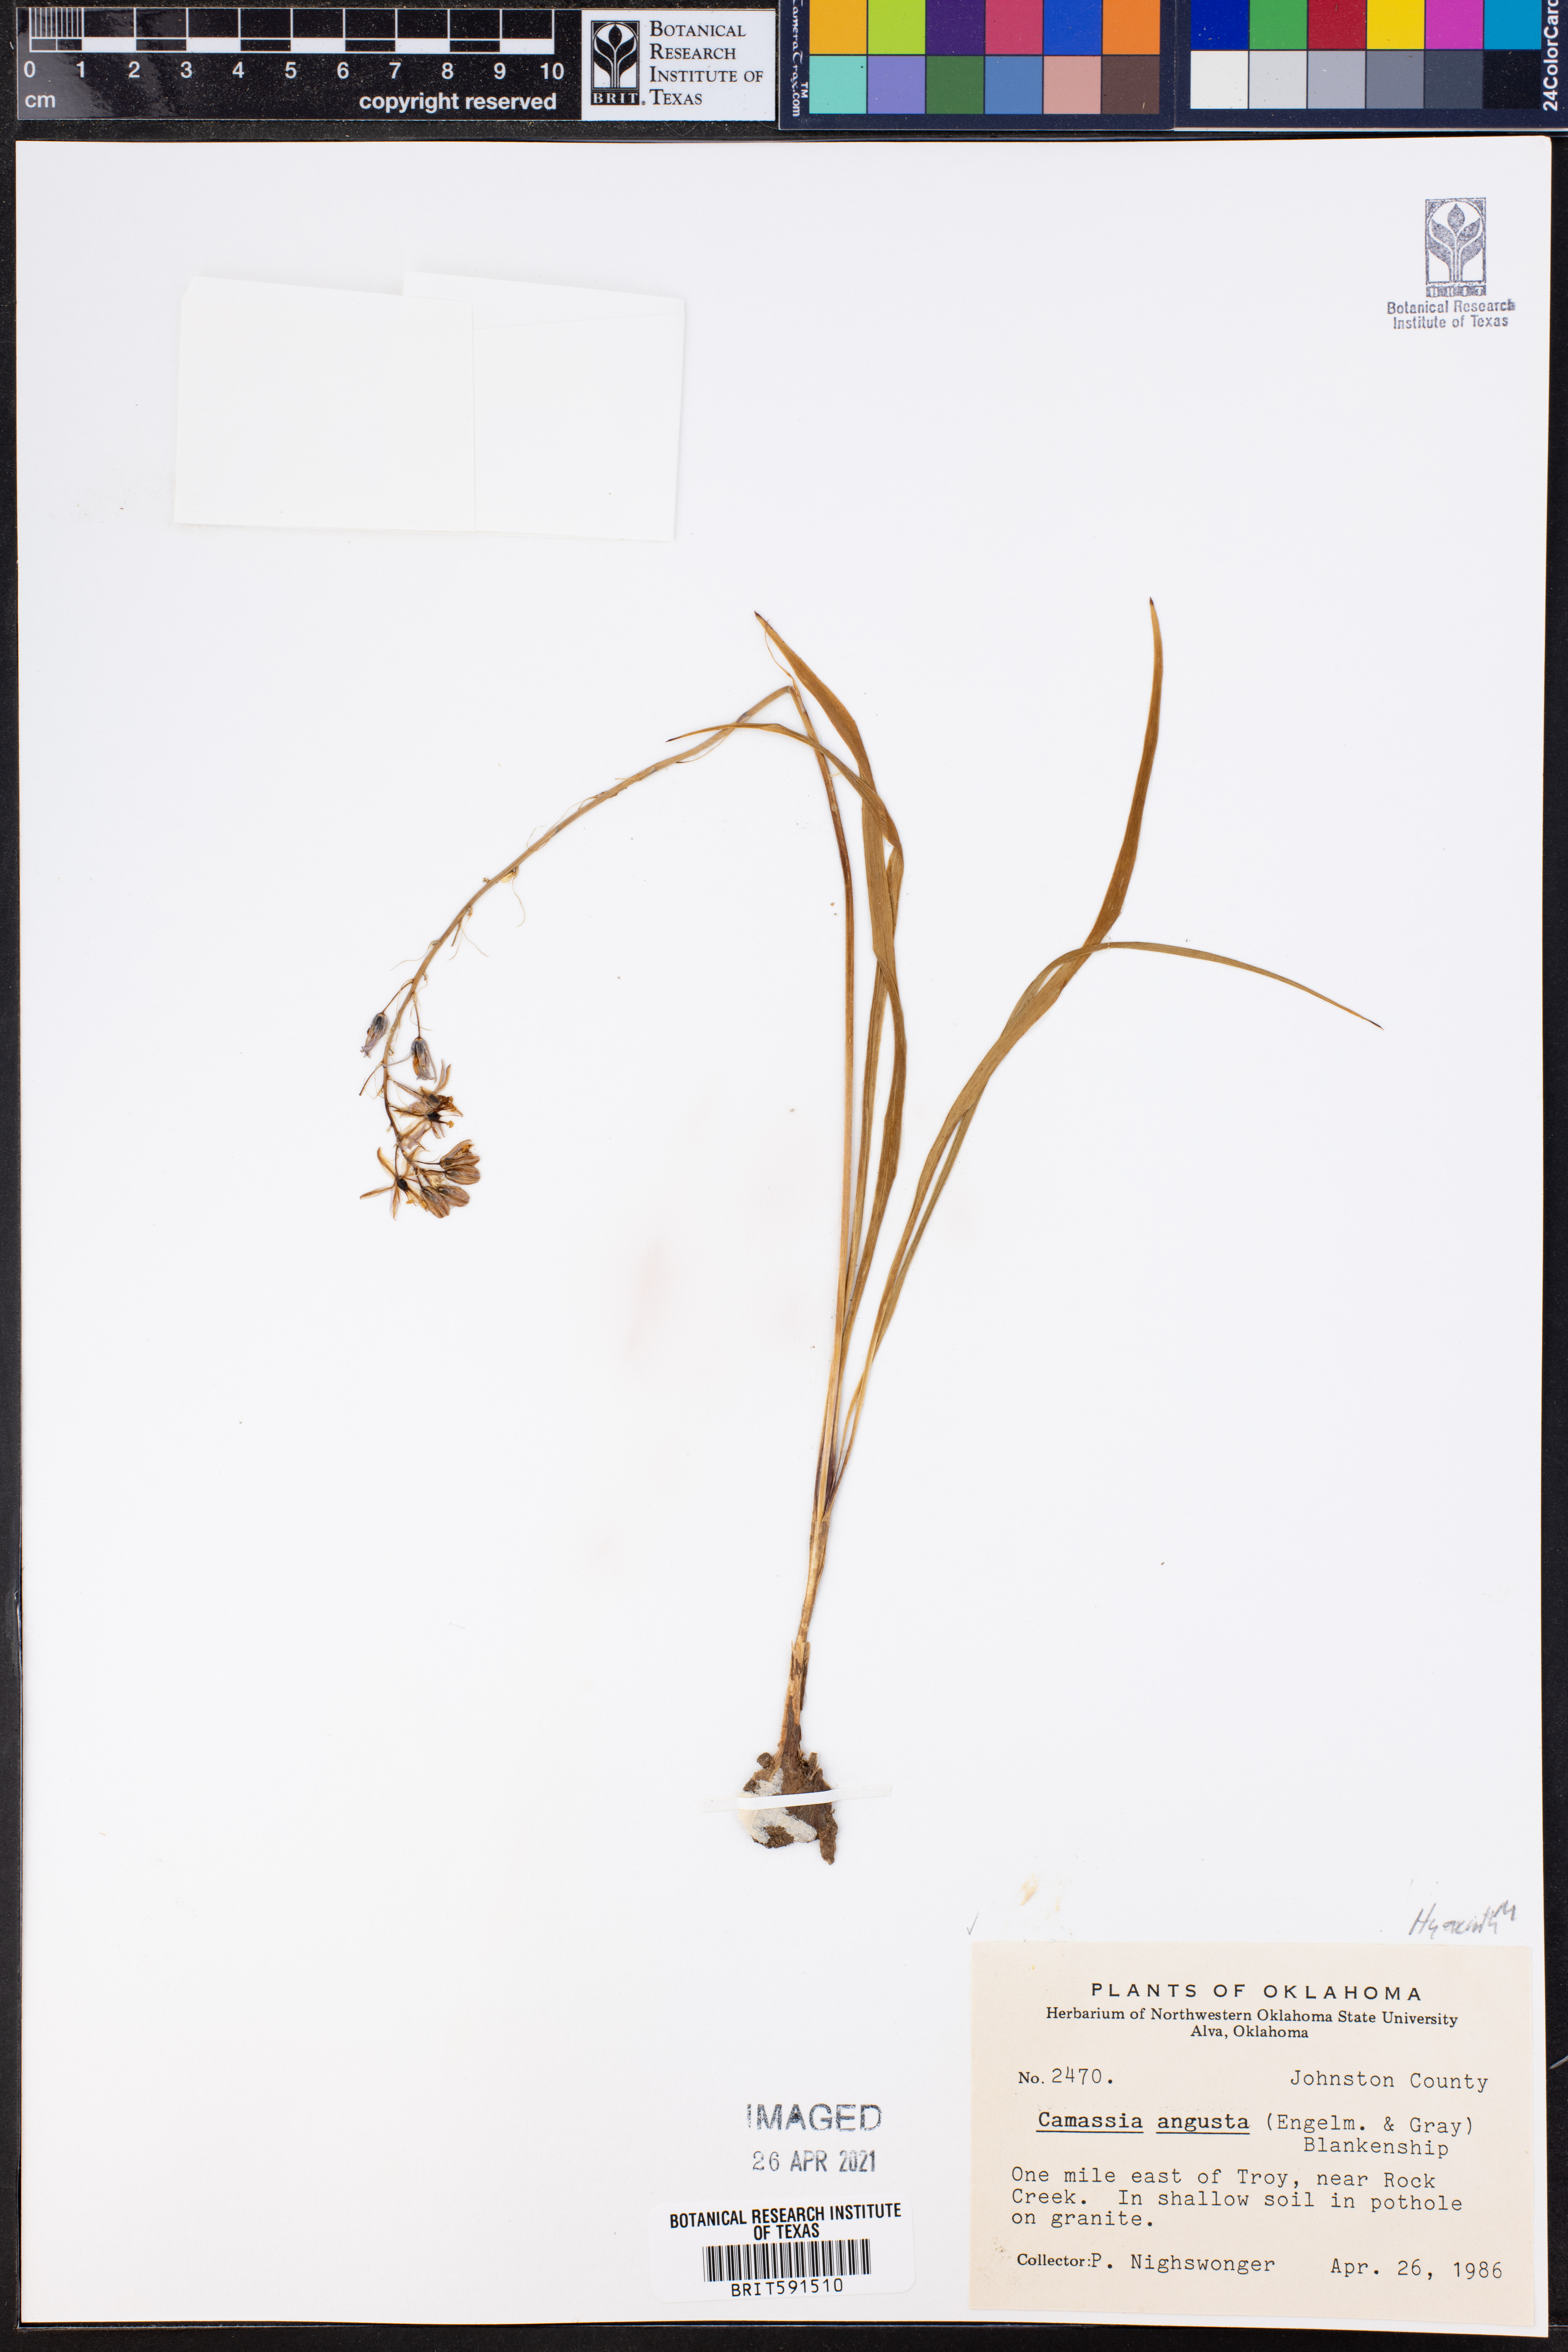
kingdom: Plantae
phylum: Tracheophyta
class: Liliopsida
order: Asparagales
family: Asparagaceae
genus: Camassia
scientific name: Camassia angusta
